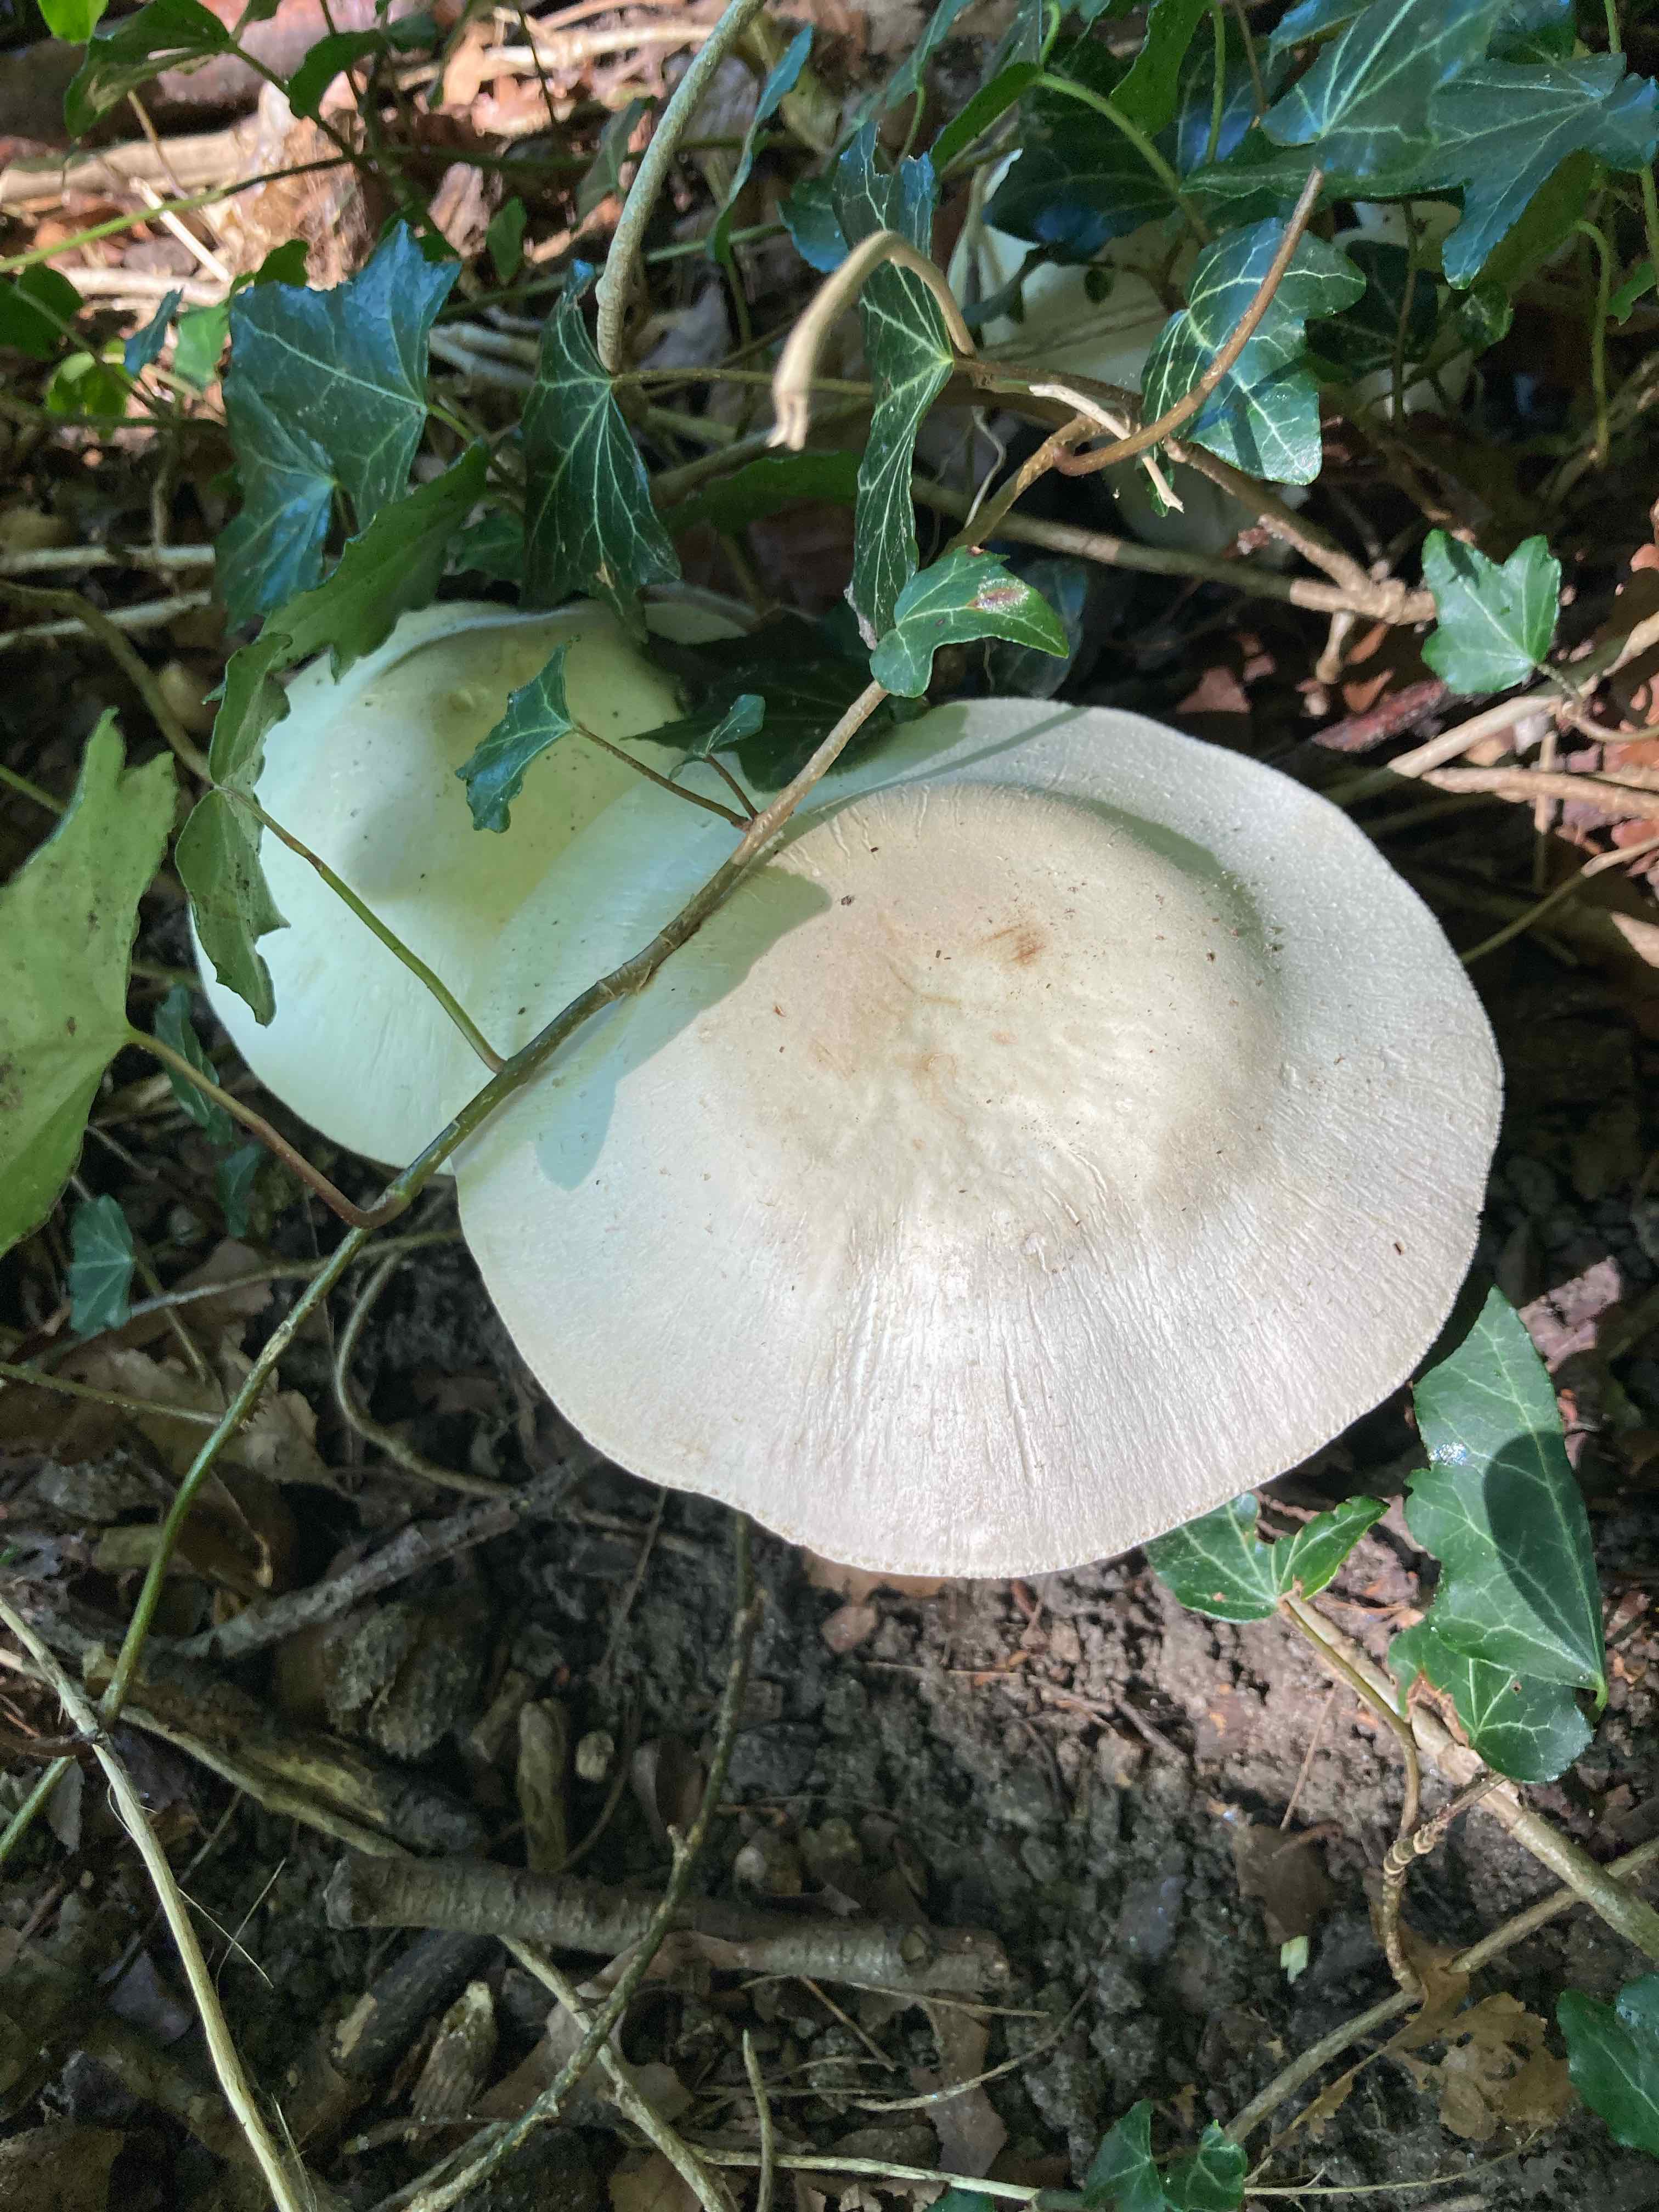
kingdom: Fungi
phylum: Basidiomycota
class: Agaricomycetes
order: Agaricales
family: Agaricaceae
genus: Agaricus
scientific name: Agaricus xanthodermus
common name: karbol-champignon
